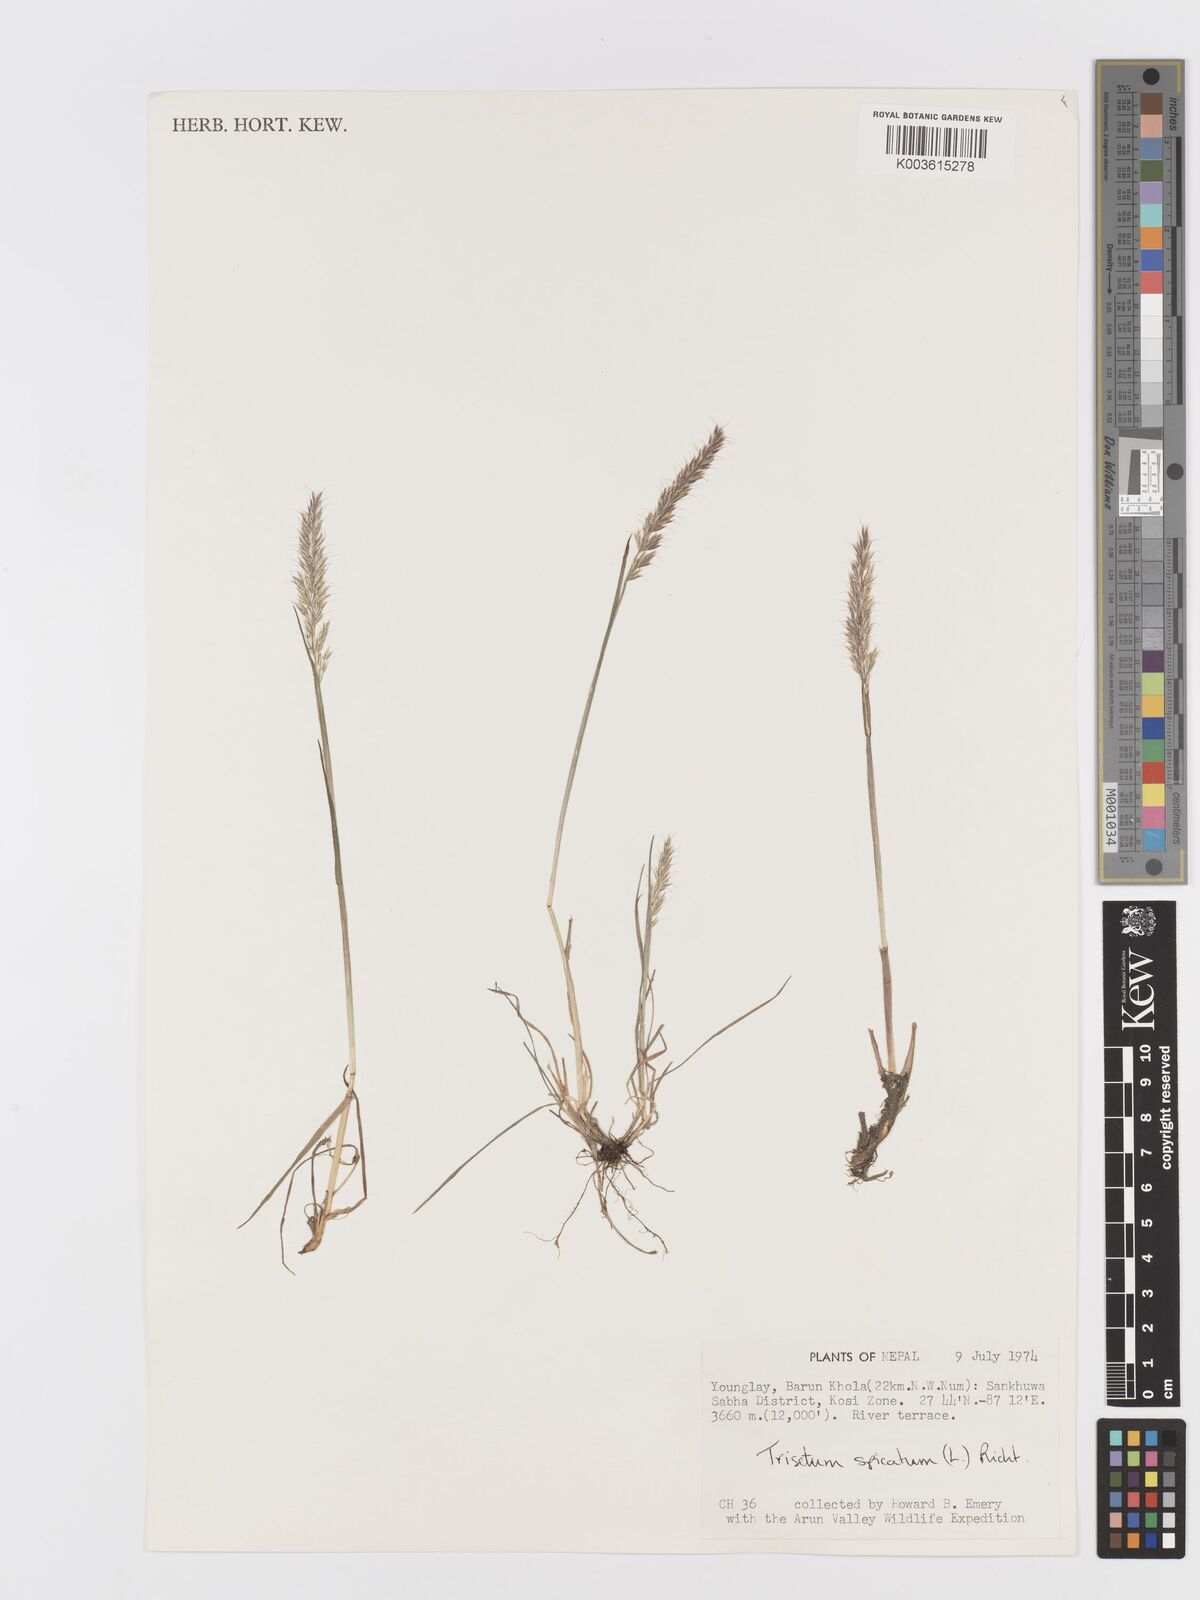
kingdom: Plantae
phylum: Tracheophyta
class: Liliopsida
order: Poales
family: Poaceae
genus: Koeleria
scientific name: Koeleria spicata
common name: Mountain trisetum
